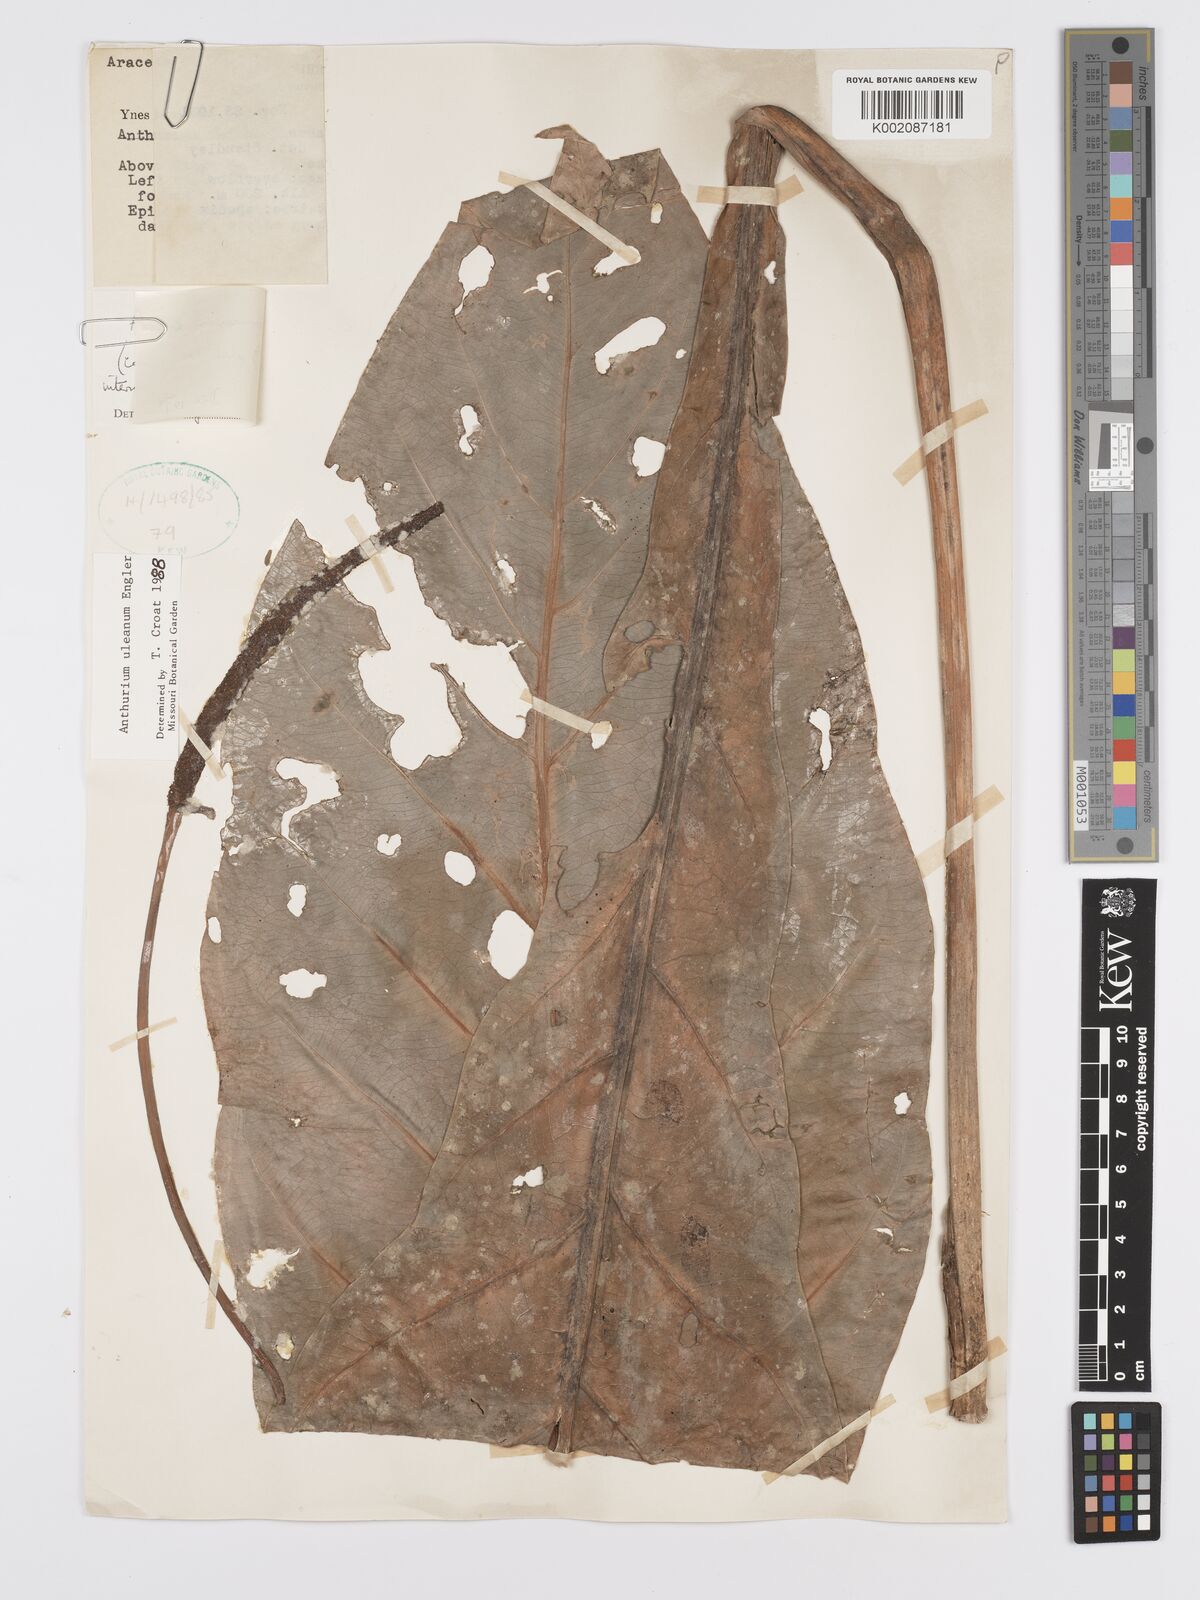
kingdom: Plantae
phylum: Tracheophyta
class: Liliopsida
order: Alismatales
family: Araceae
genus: Anthurium
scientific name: Anthurium uleanum
